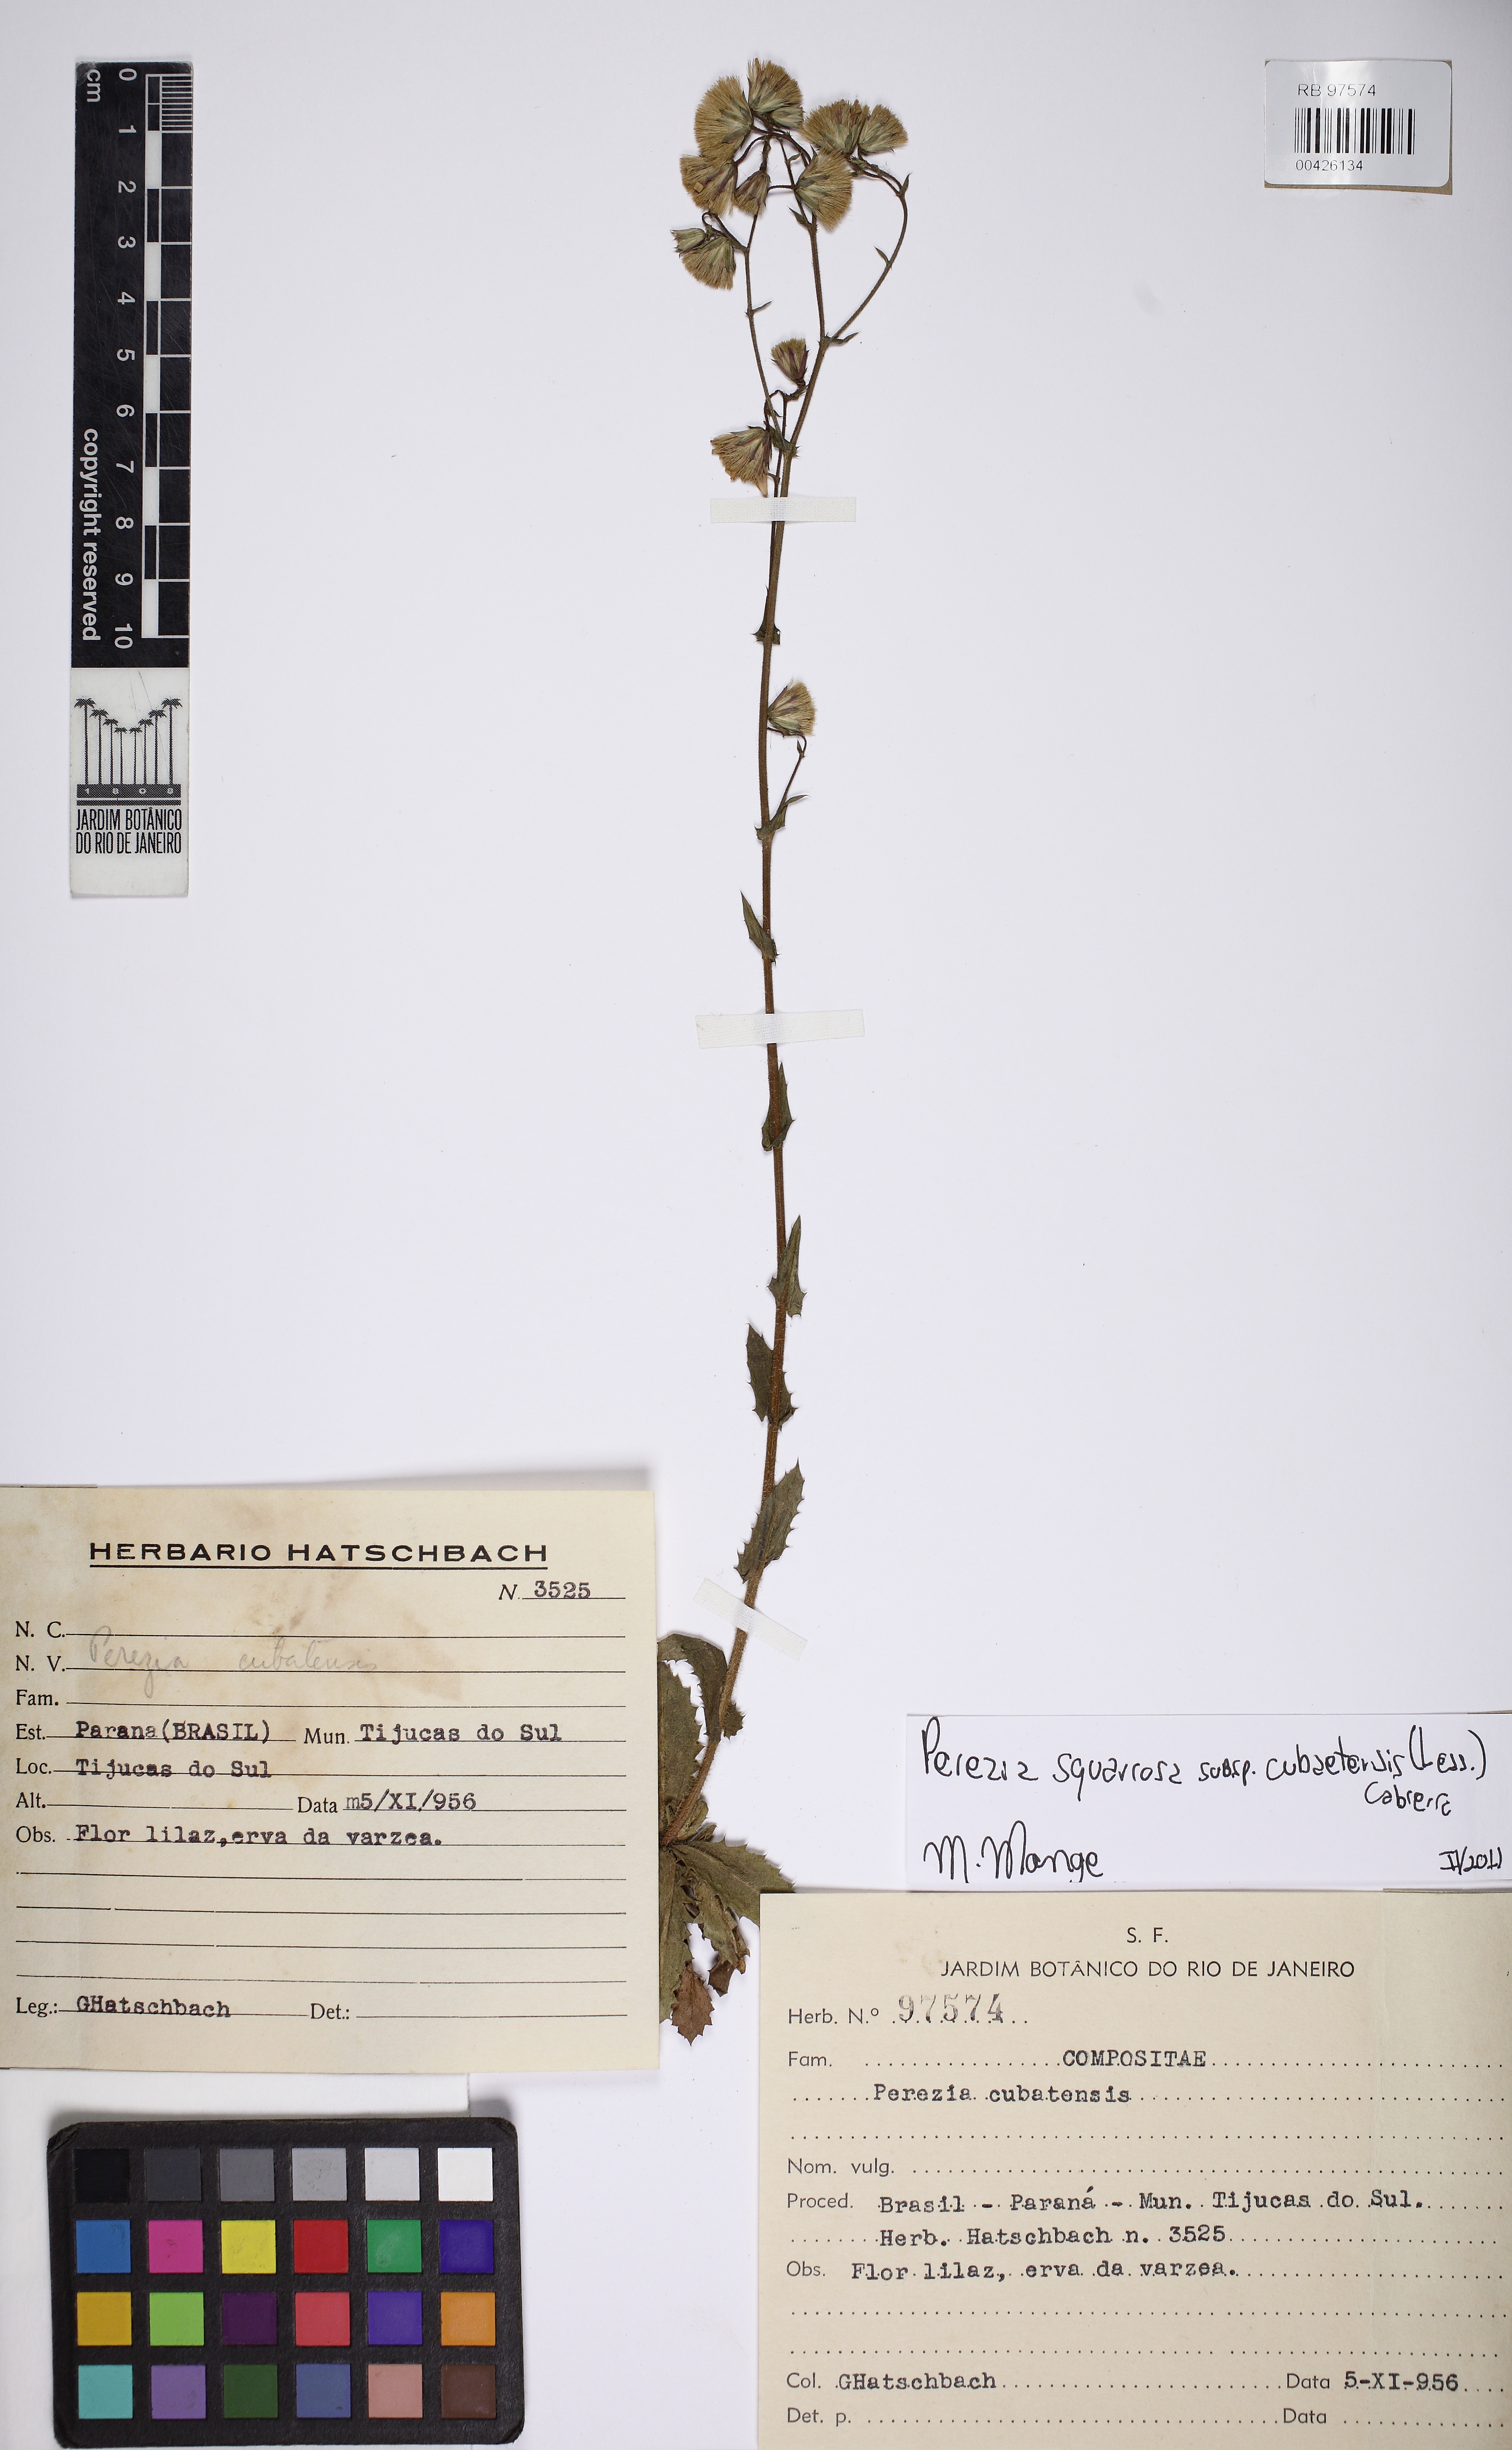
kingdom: Plantae
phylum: Tracheophyta
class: Magnoliopsida
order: Asterales
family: Asteraceae
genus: Perezia
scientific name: Perezia Homoianthus cubaetensis
